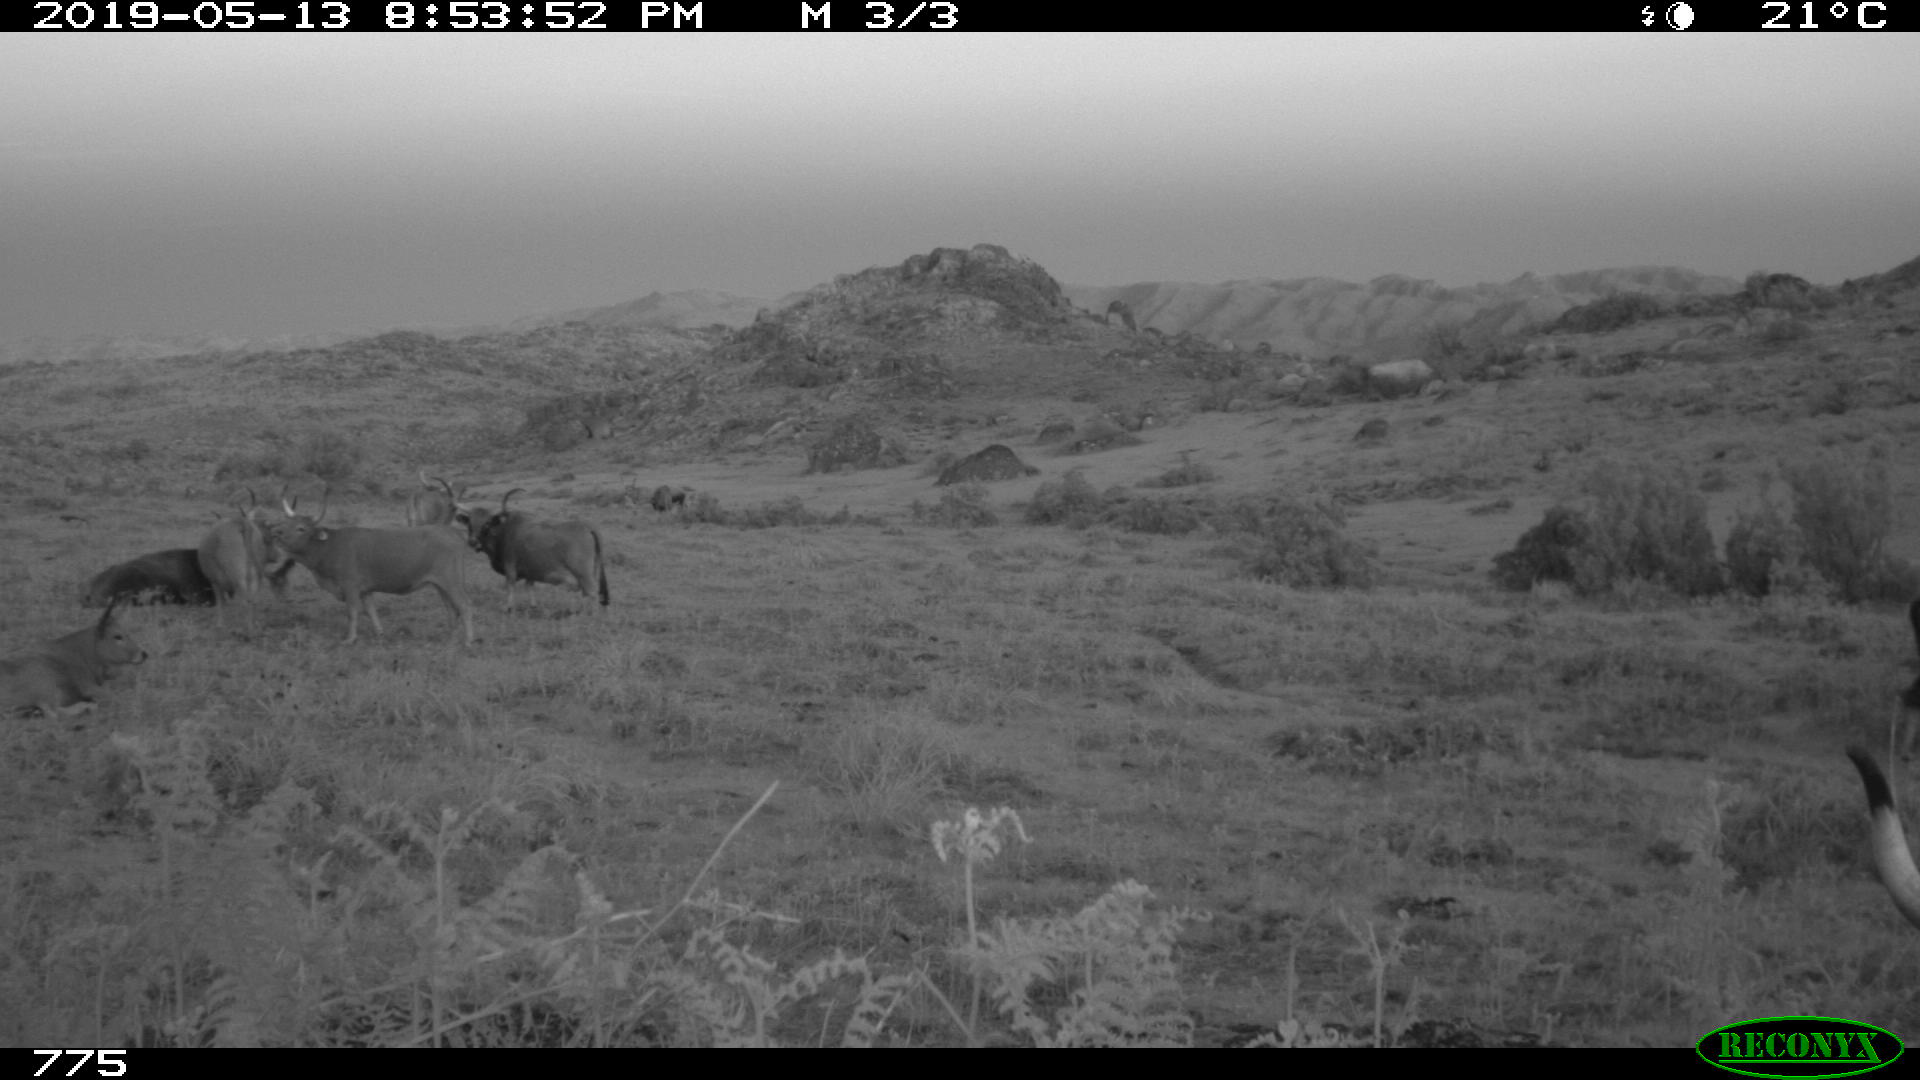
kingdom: Animalia
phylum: Chordata
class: Mammalia
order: Artiodactyla
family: Bovidae
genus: Bos
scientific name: Bos taurus
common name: Domesticated cattle
